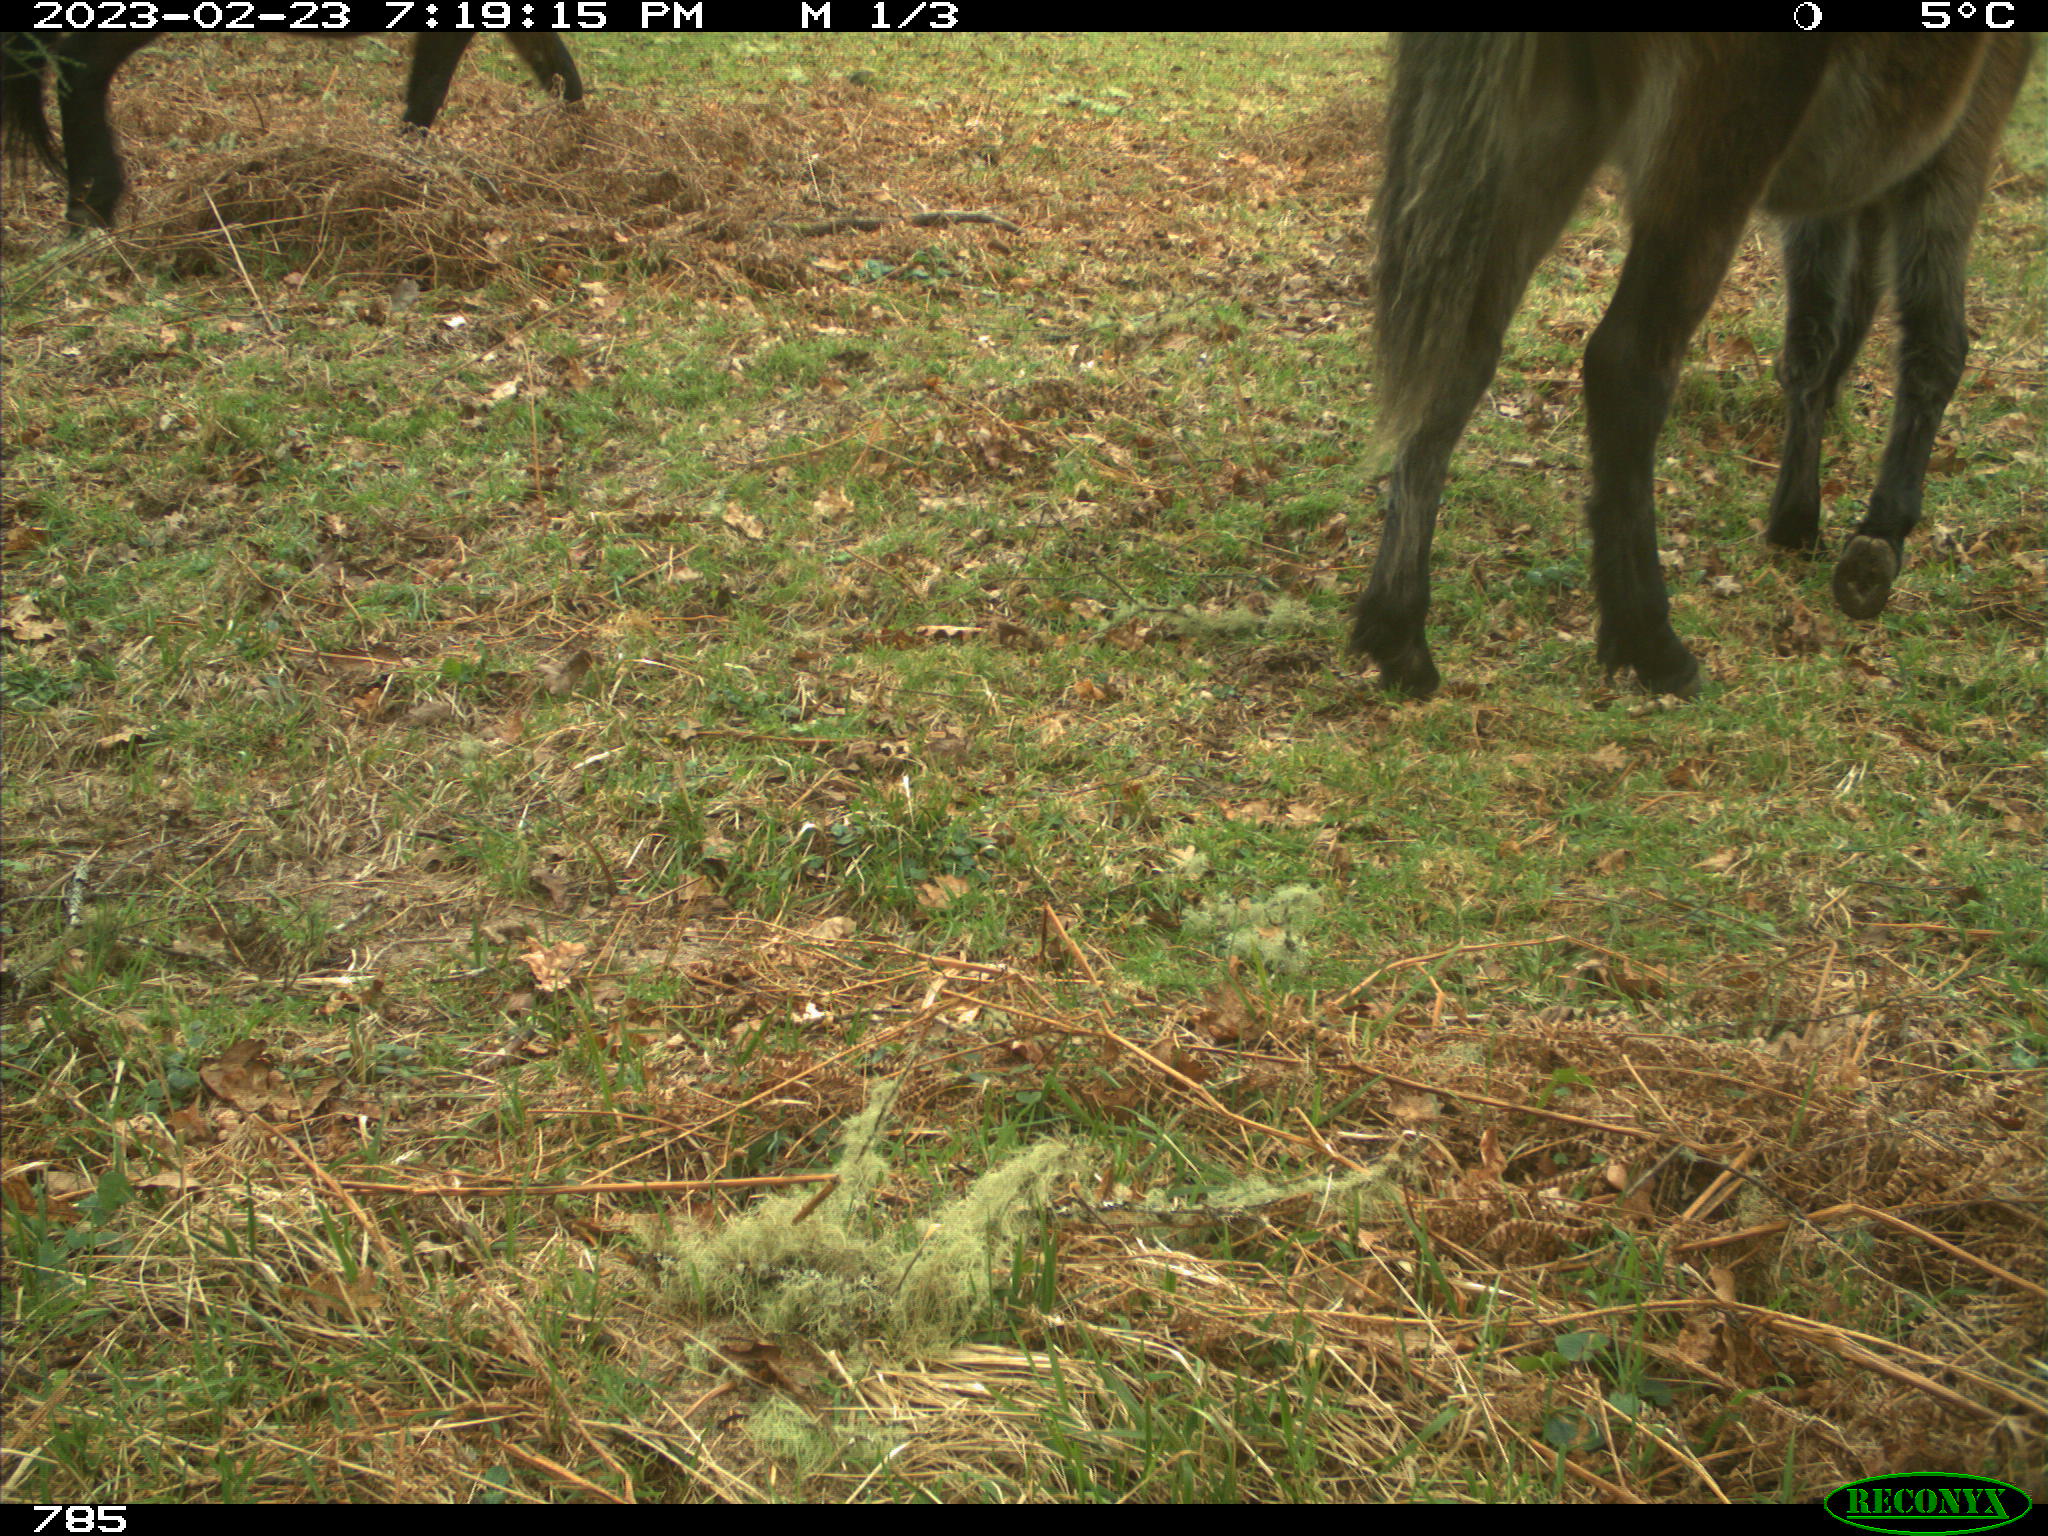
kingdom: Animalia
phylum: Chordata
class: Mammalia
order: Perissodactyla
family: Equidae
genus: Equus
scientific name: Equus caballus
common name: Horse
